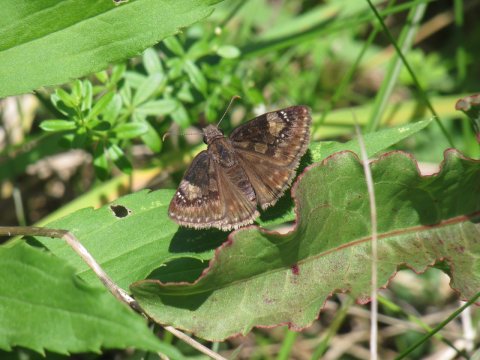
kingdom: Animalia
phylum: Arthropoda
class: Insecta
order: Lepidoptera
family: Hesperiidae
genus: Gesta
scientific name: Gesta
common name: Wild Indigo Duskywing
